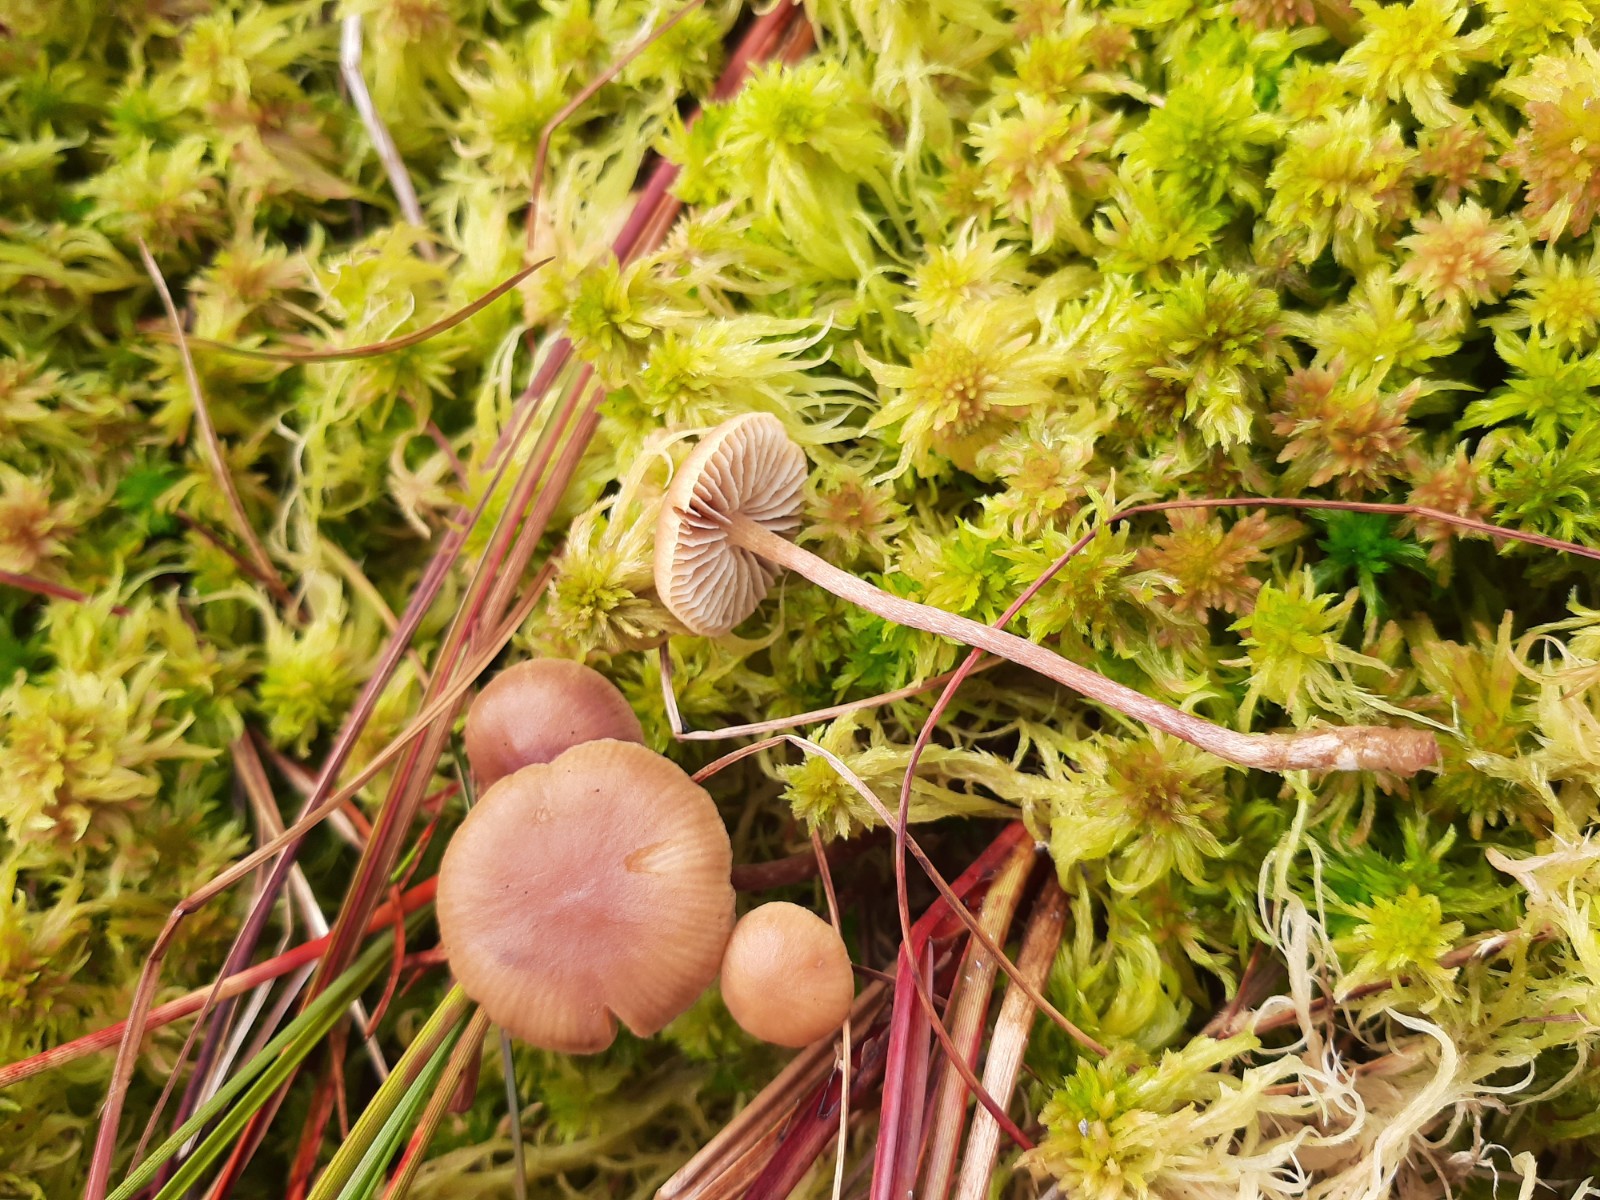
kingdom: Fungi
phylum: Basidiomycota
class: Agaricomycetes
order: Agaricales
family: Strophariaceae
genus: Bogbodia
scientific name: Bogbodia uda
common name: tørve-svovlhat
